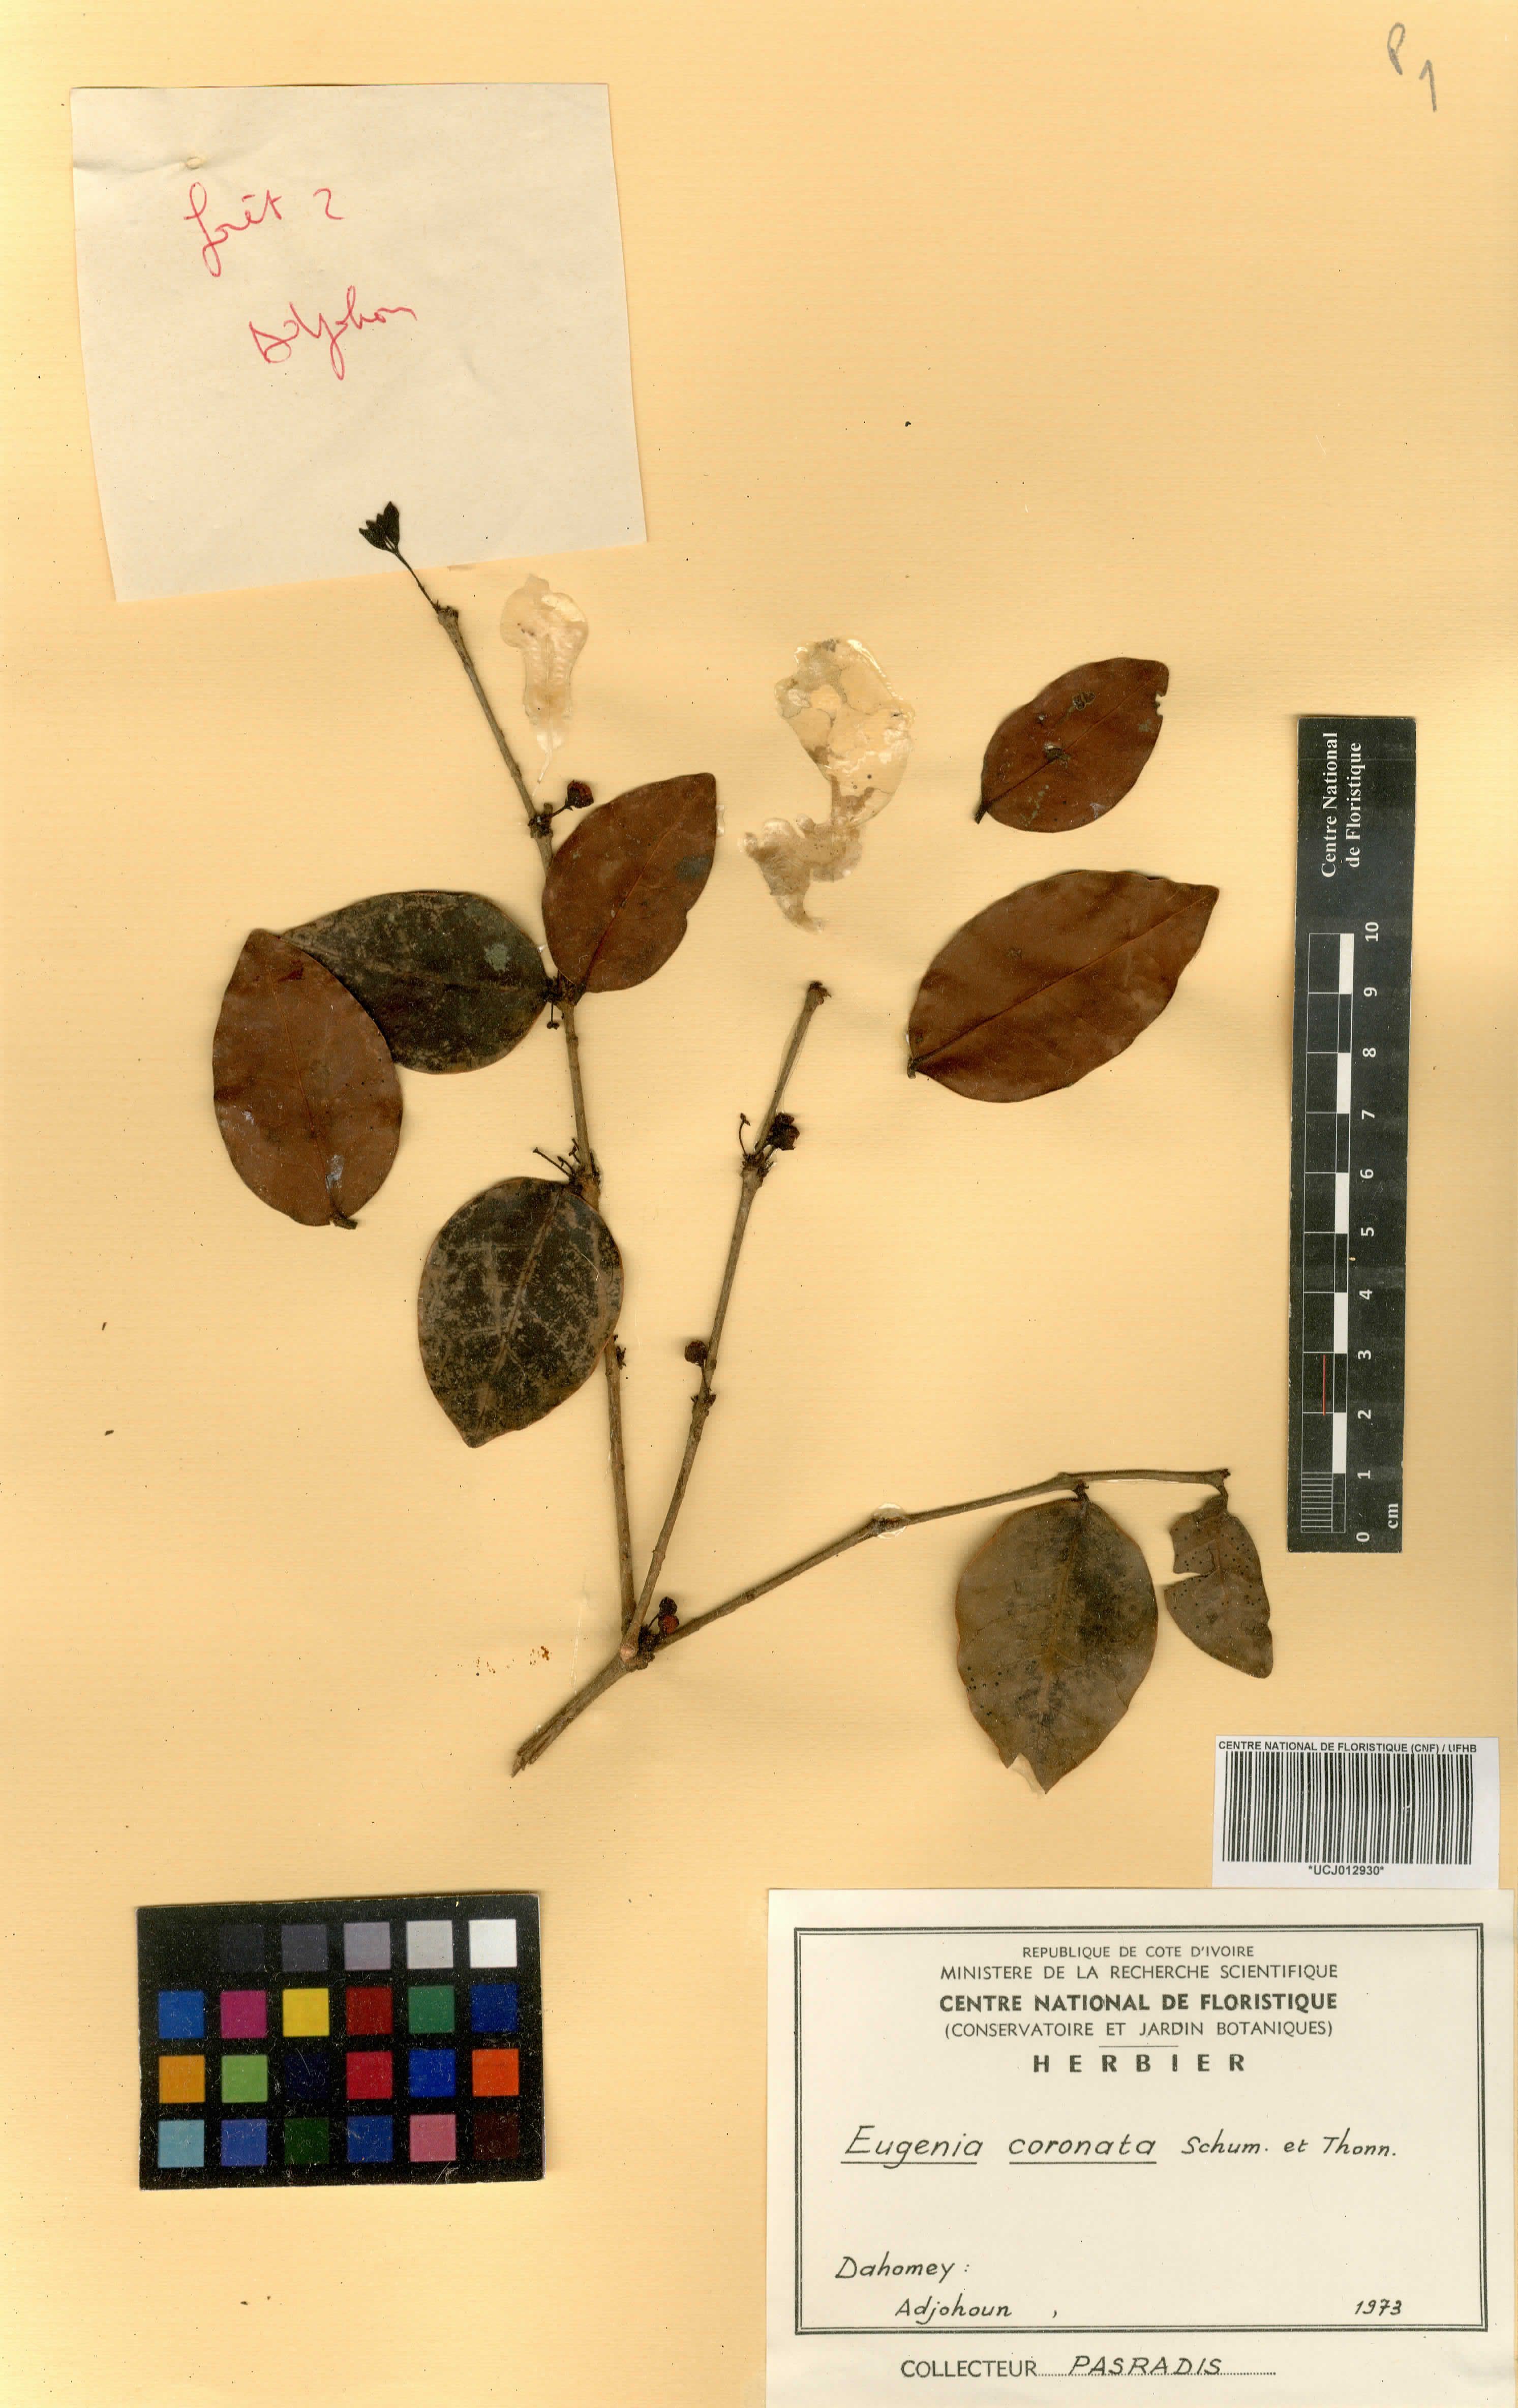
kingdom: Plantae
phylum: Tracheophyta
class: Magnoliopsida
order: Myrtales
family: Myrtaceae
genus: Eugenia
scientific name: Eugenia
